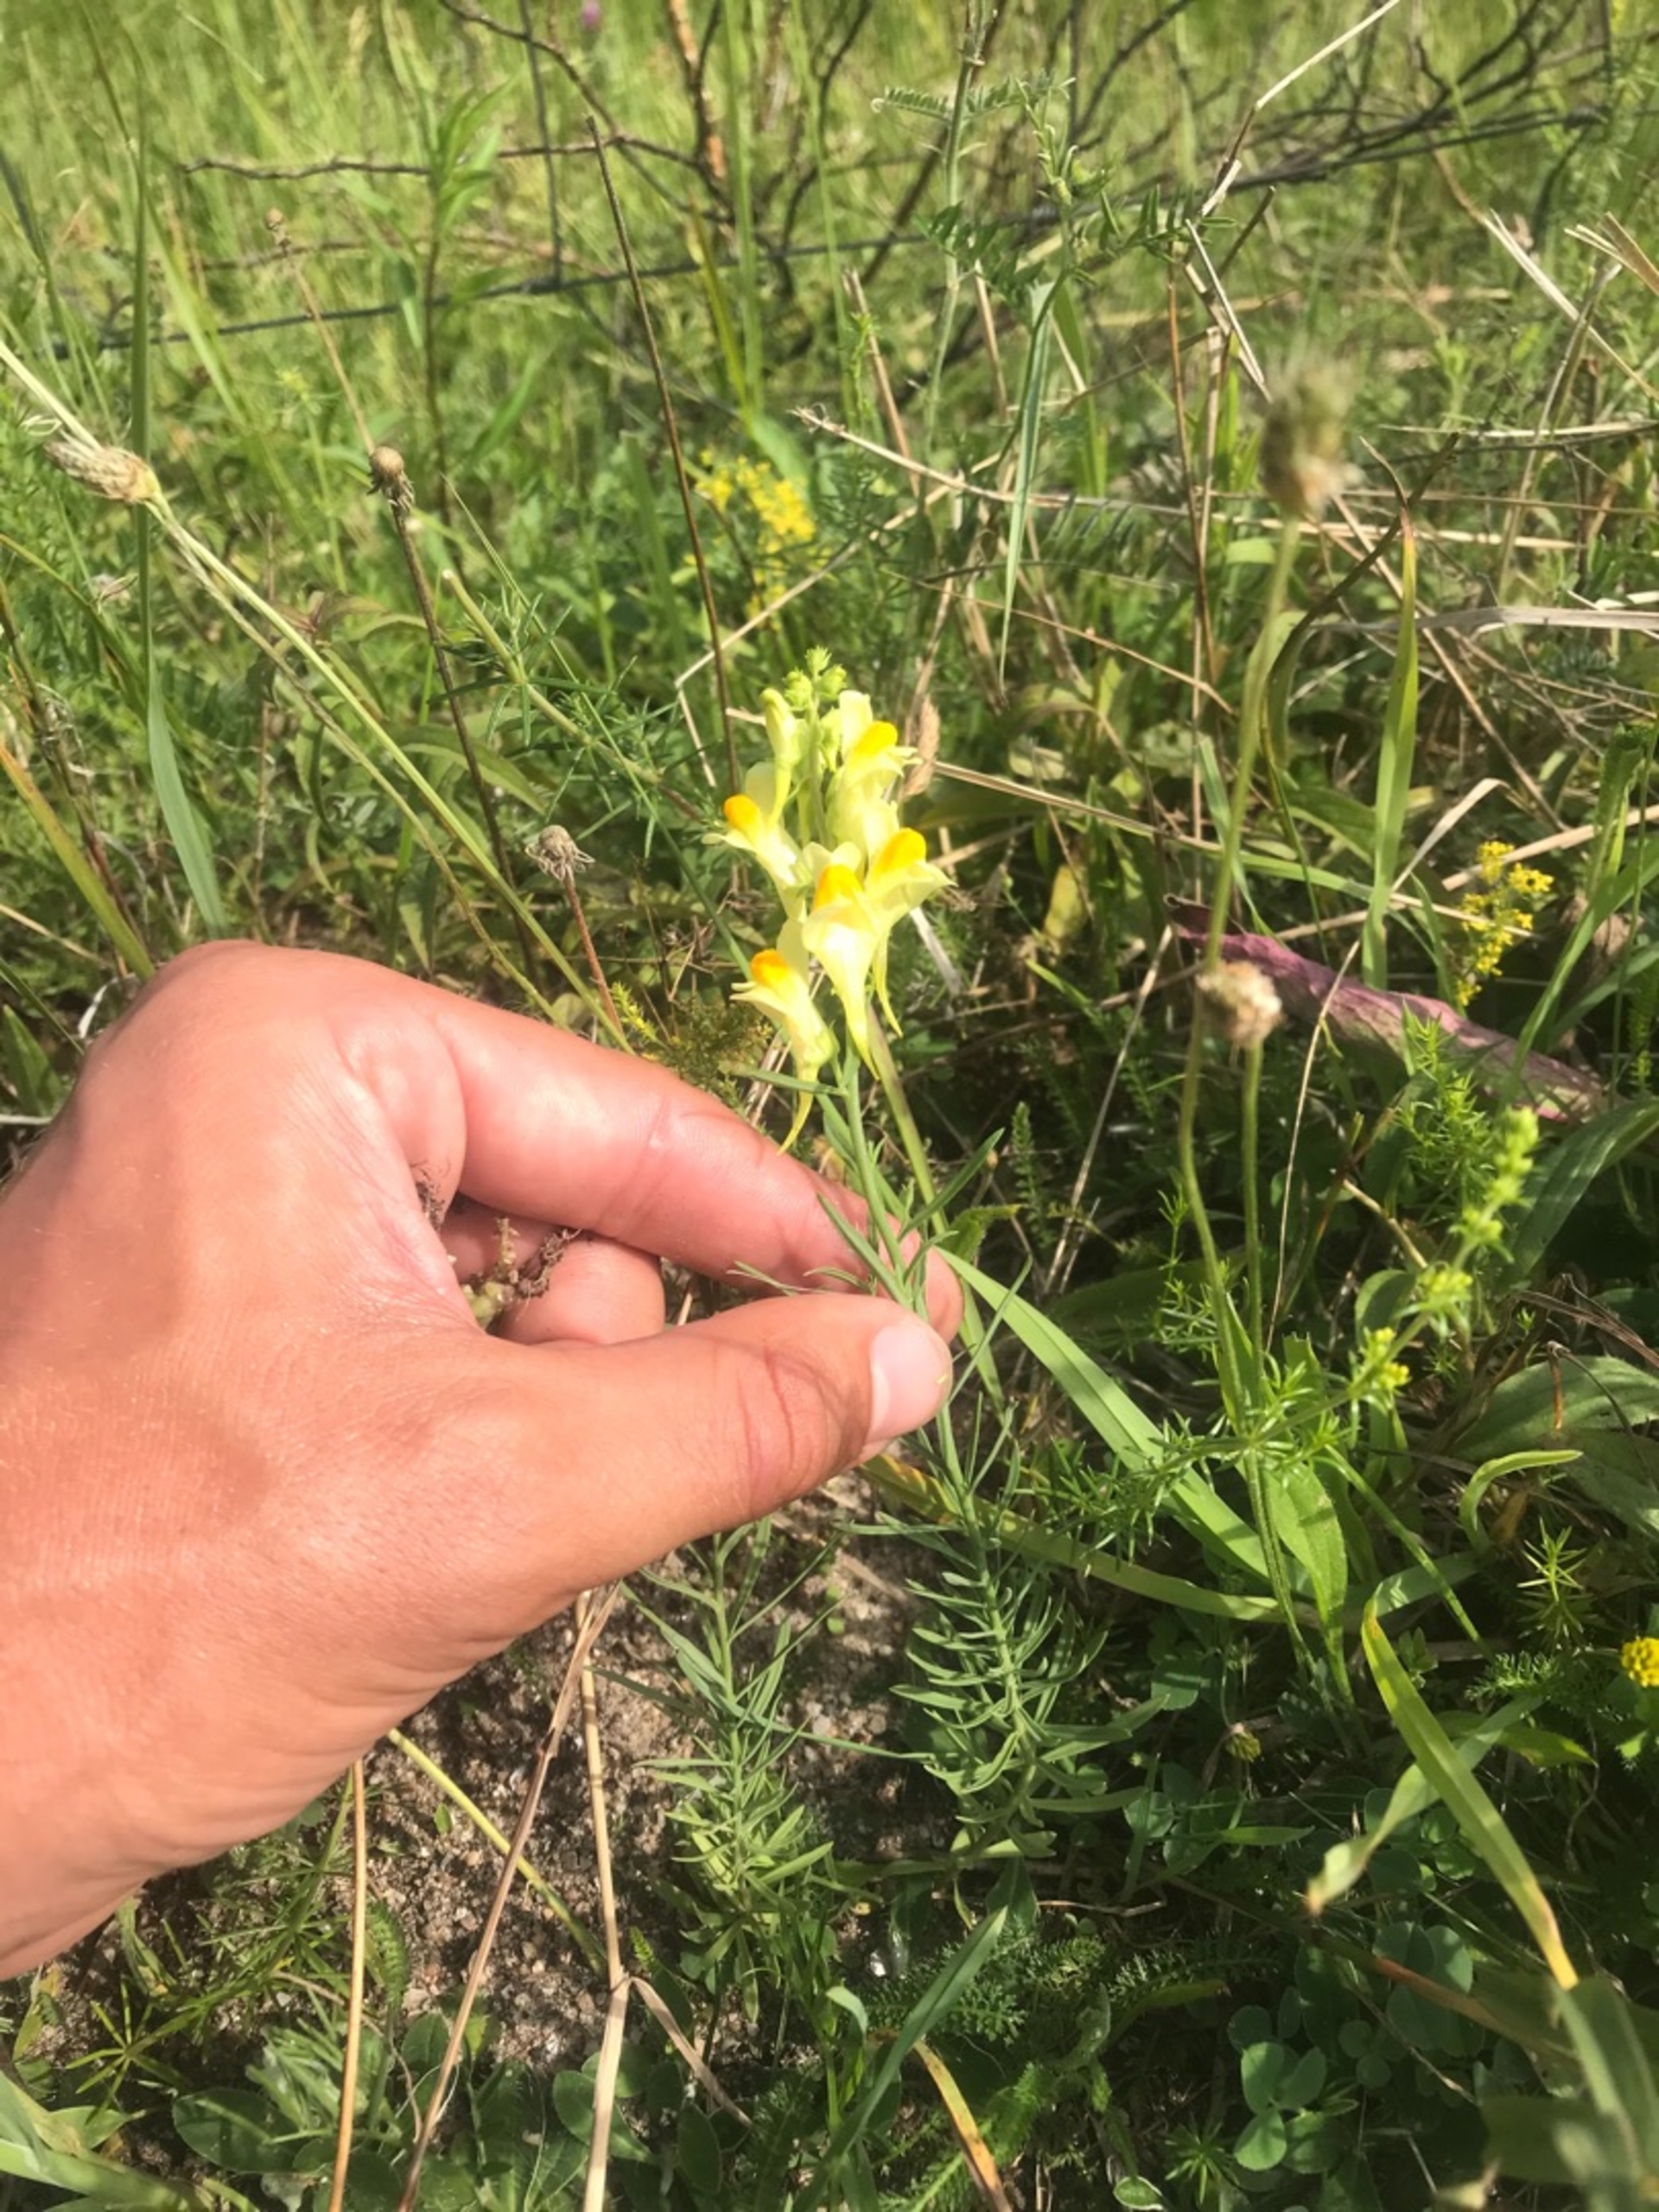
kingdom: Plantae
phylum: Tracheophyta
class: Magnoliopsida
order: Lamiales
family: Plantaginaceae
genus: Linaria
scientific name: Linaria vulgaris
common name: Almindelig torskemund
